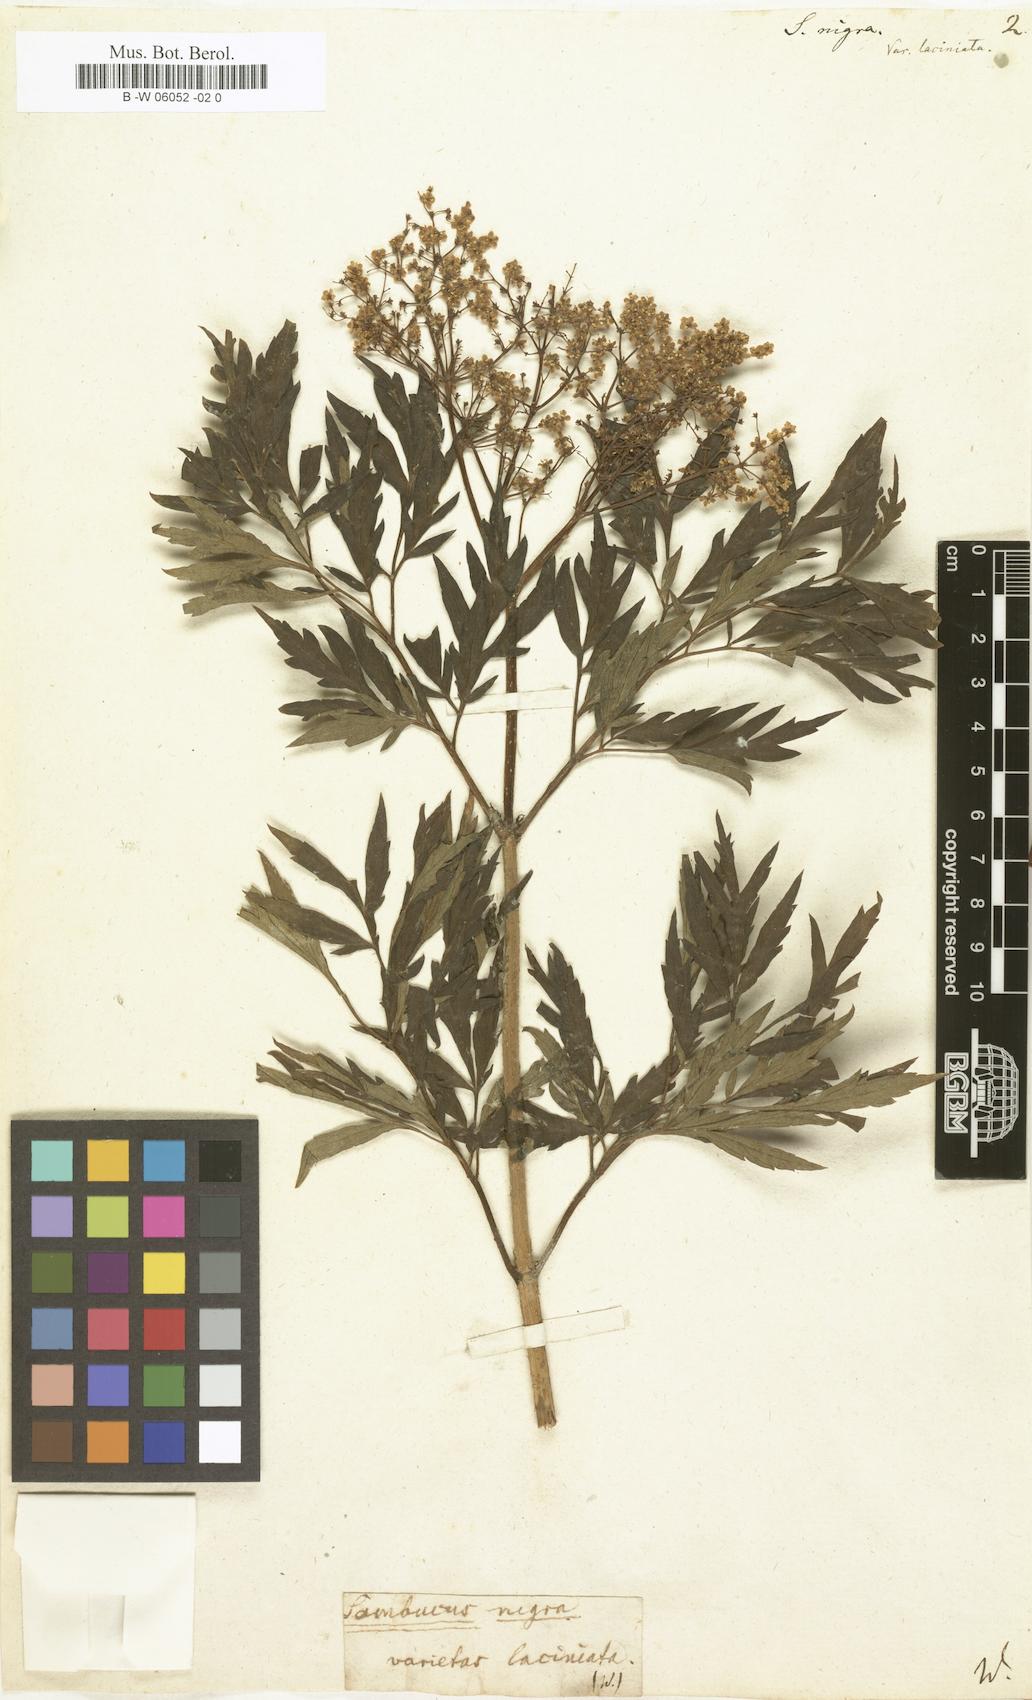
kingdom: Plantae
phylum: Tracheophyta
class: Magnoliopsida
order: Dipsacales
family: Viburnaceae
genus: Sambucus
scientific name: Sambucus nigra
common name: Elder
